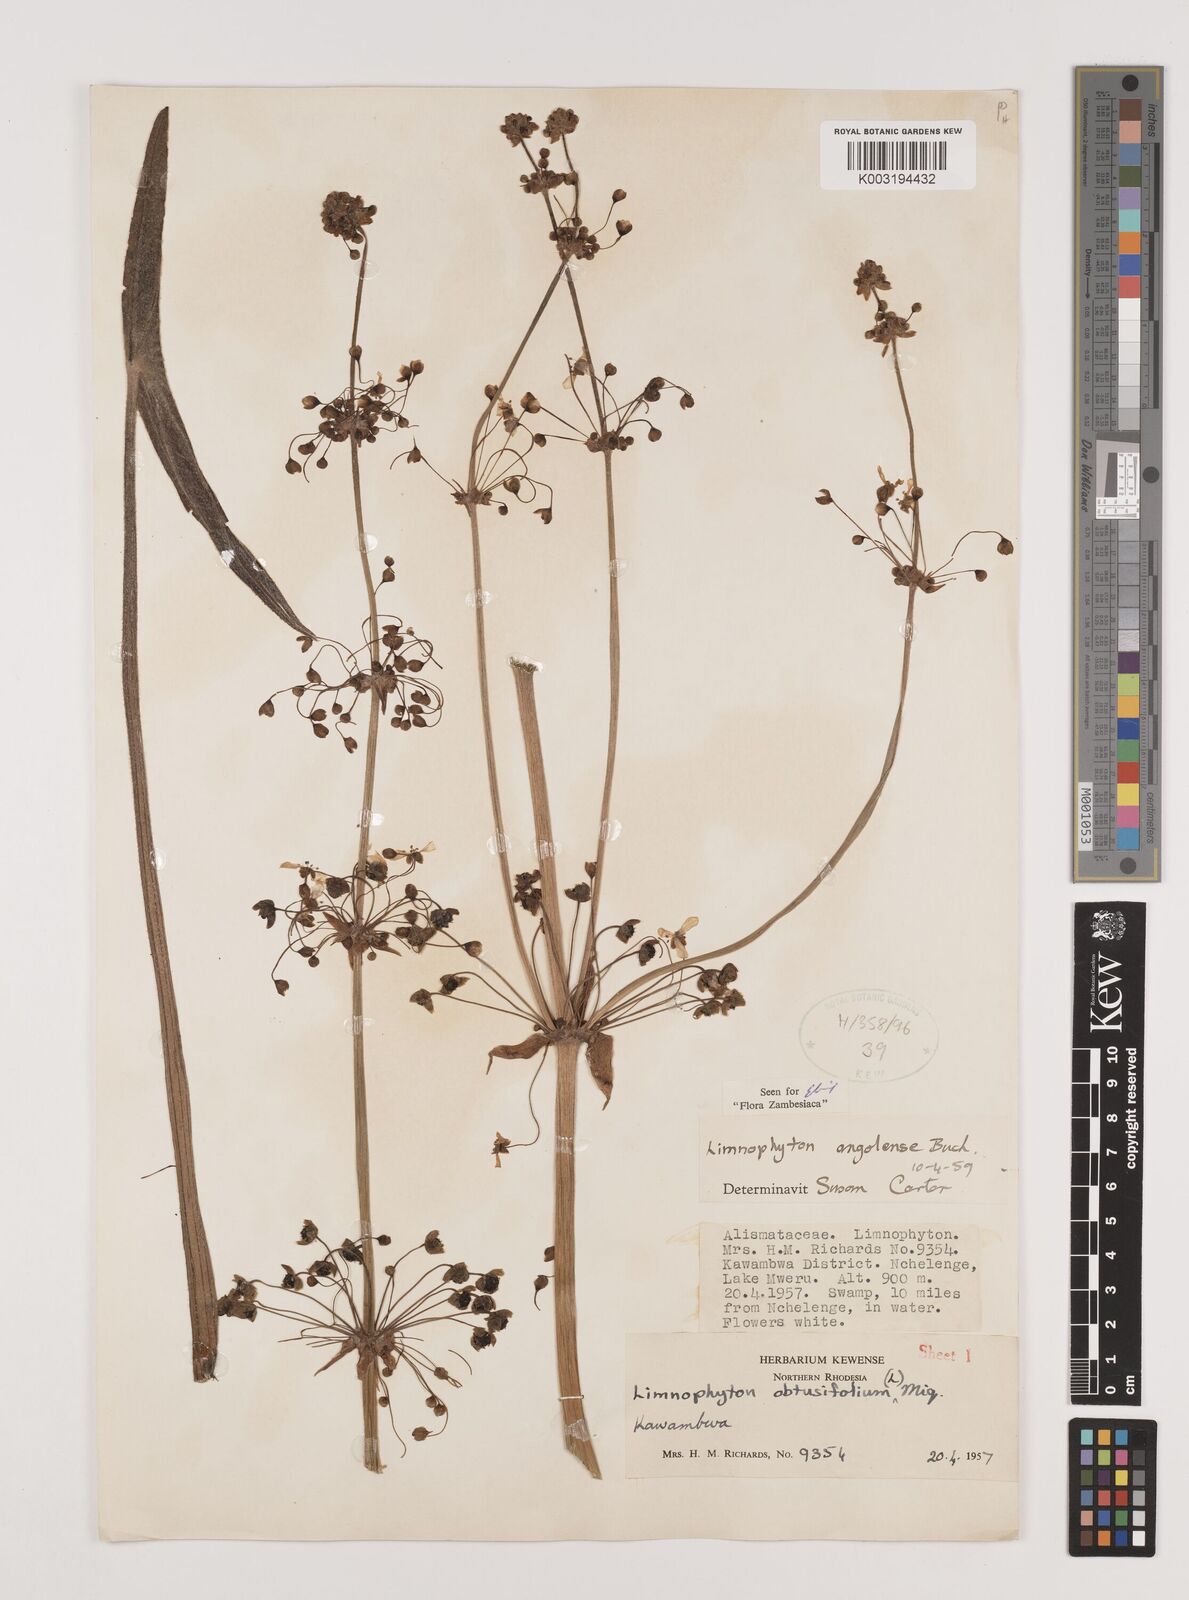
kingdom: Plantae
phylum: Tracheophyta
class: Liliopsida
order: Alismatales
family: Alismataceae
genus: Limnophyton
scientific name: Limnophyton
